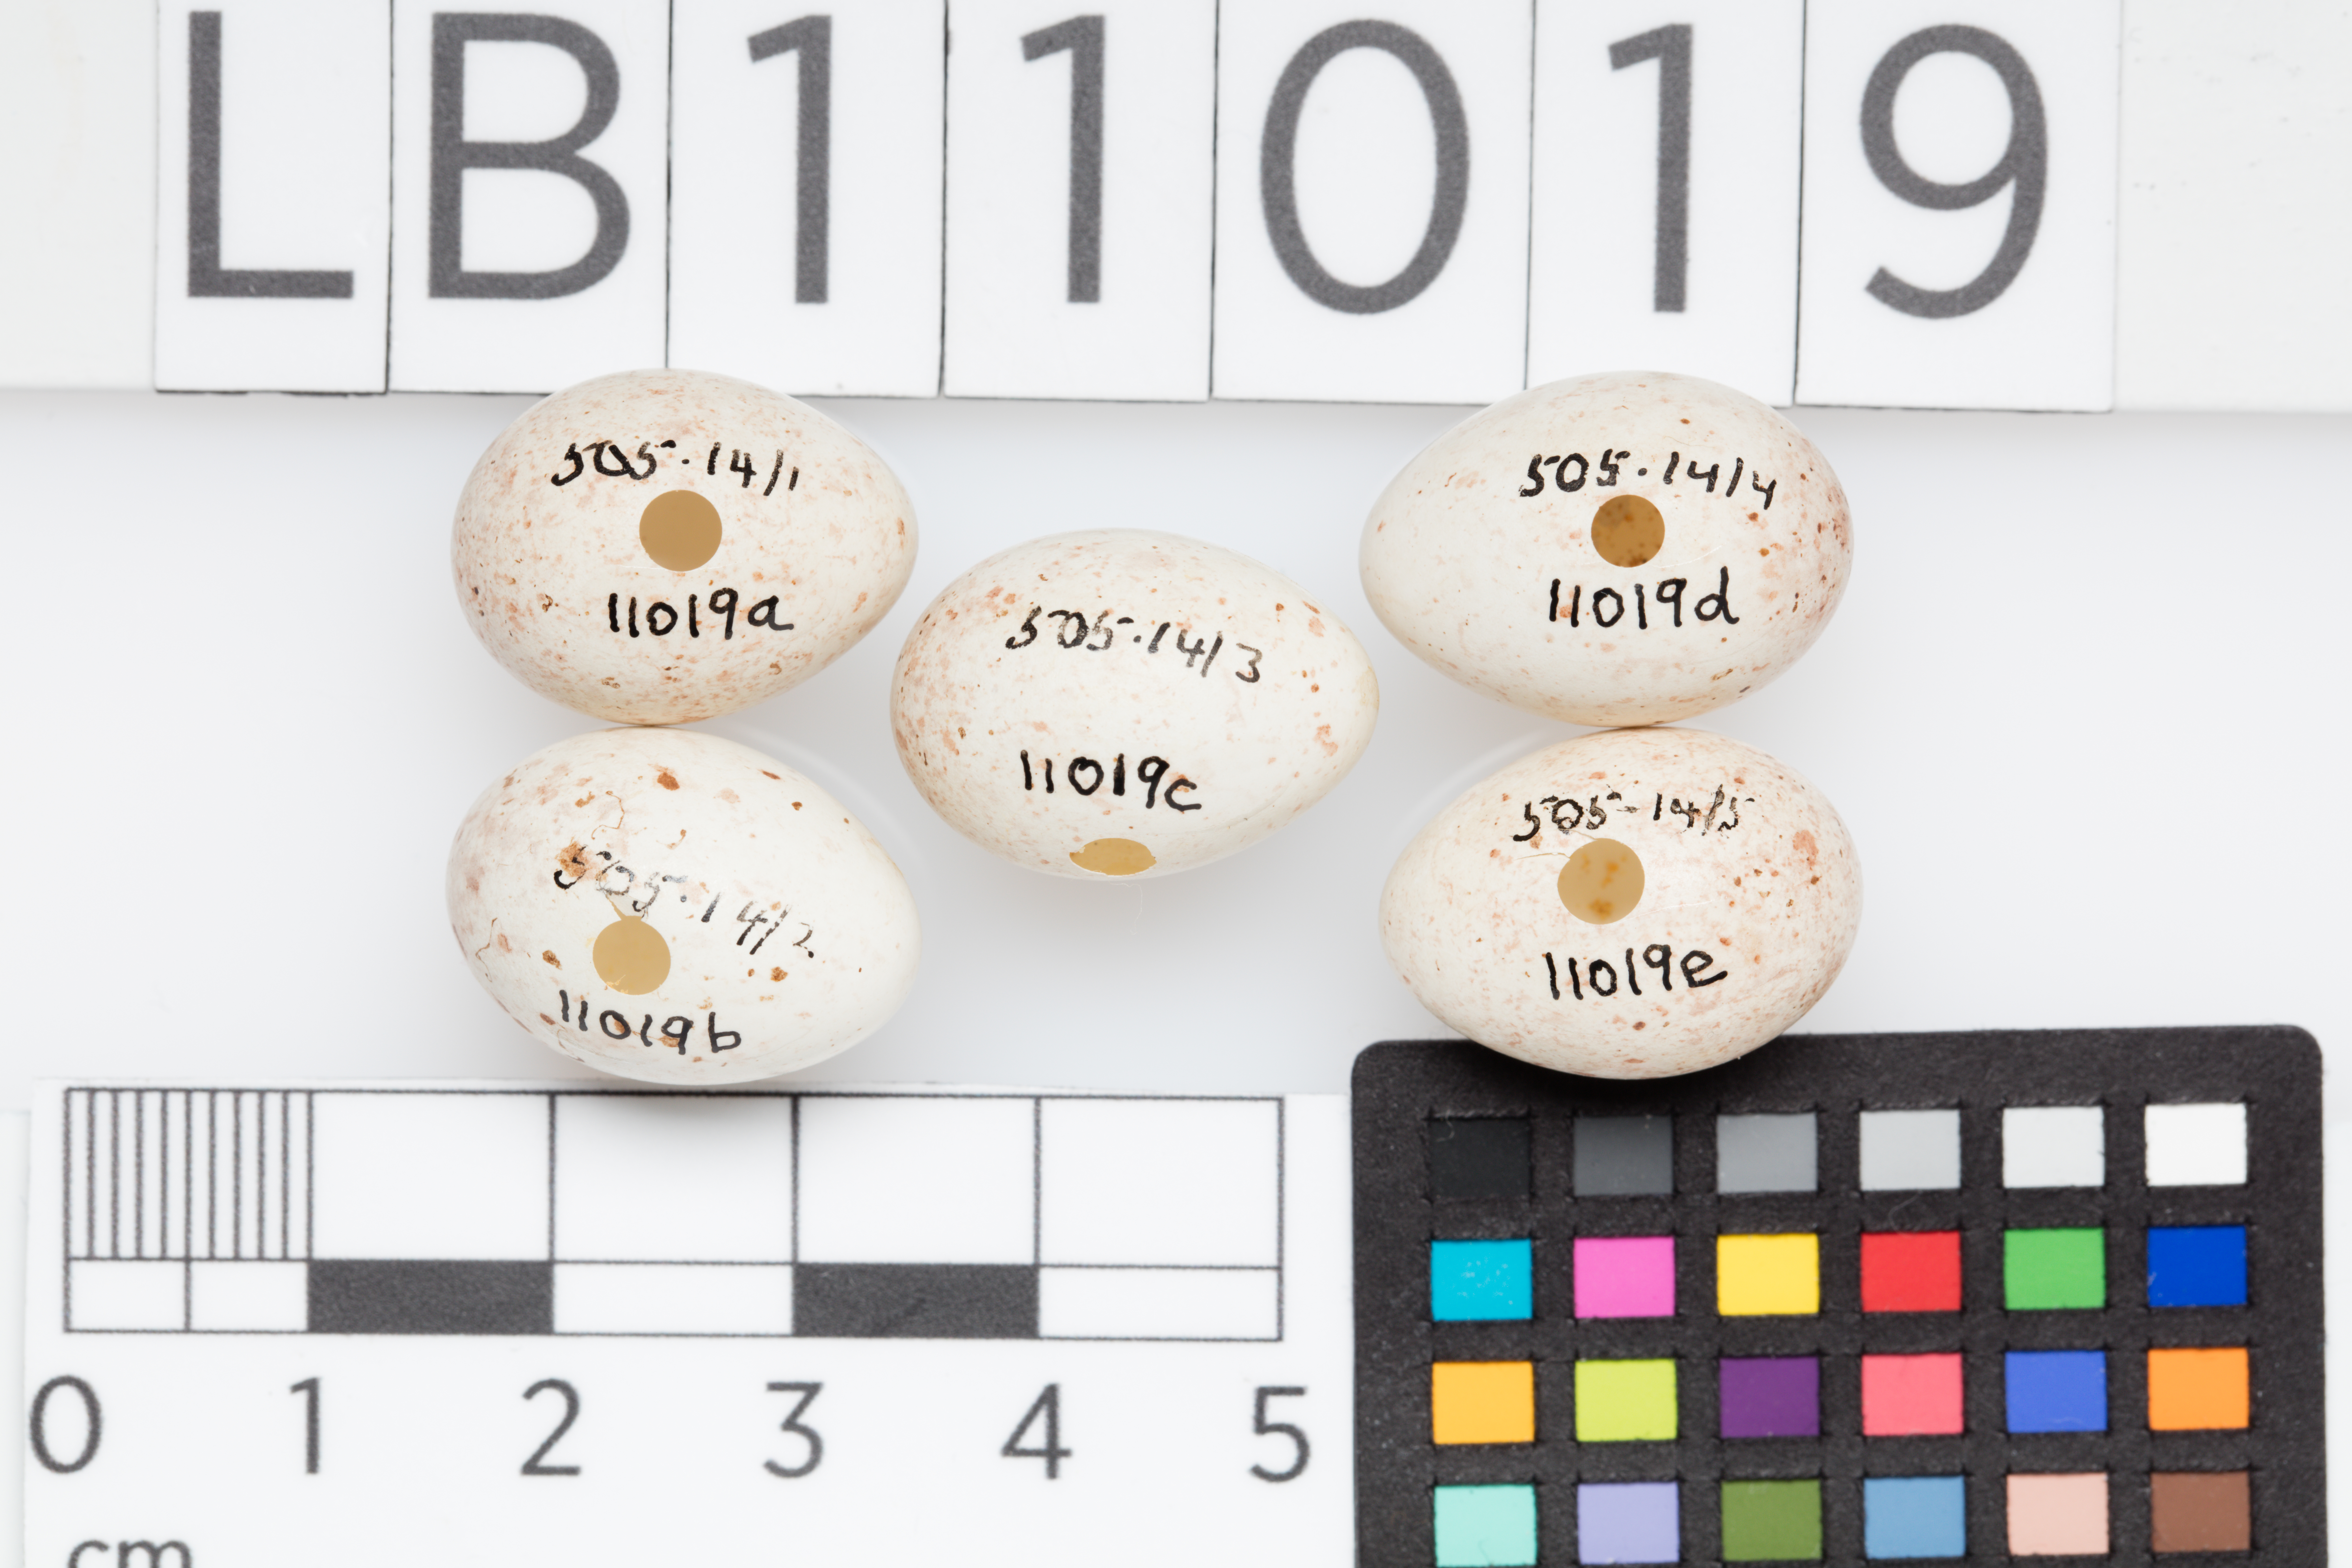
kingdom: Plantae
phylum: Tracheophyta
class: Liliopsida
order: Poales
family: Poaceae
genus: Chloris
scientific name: Chloris chloris
